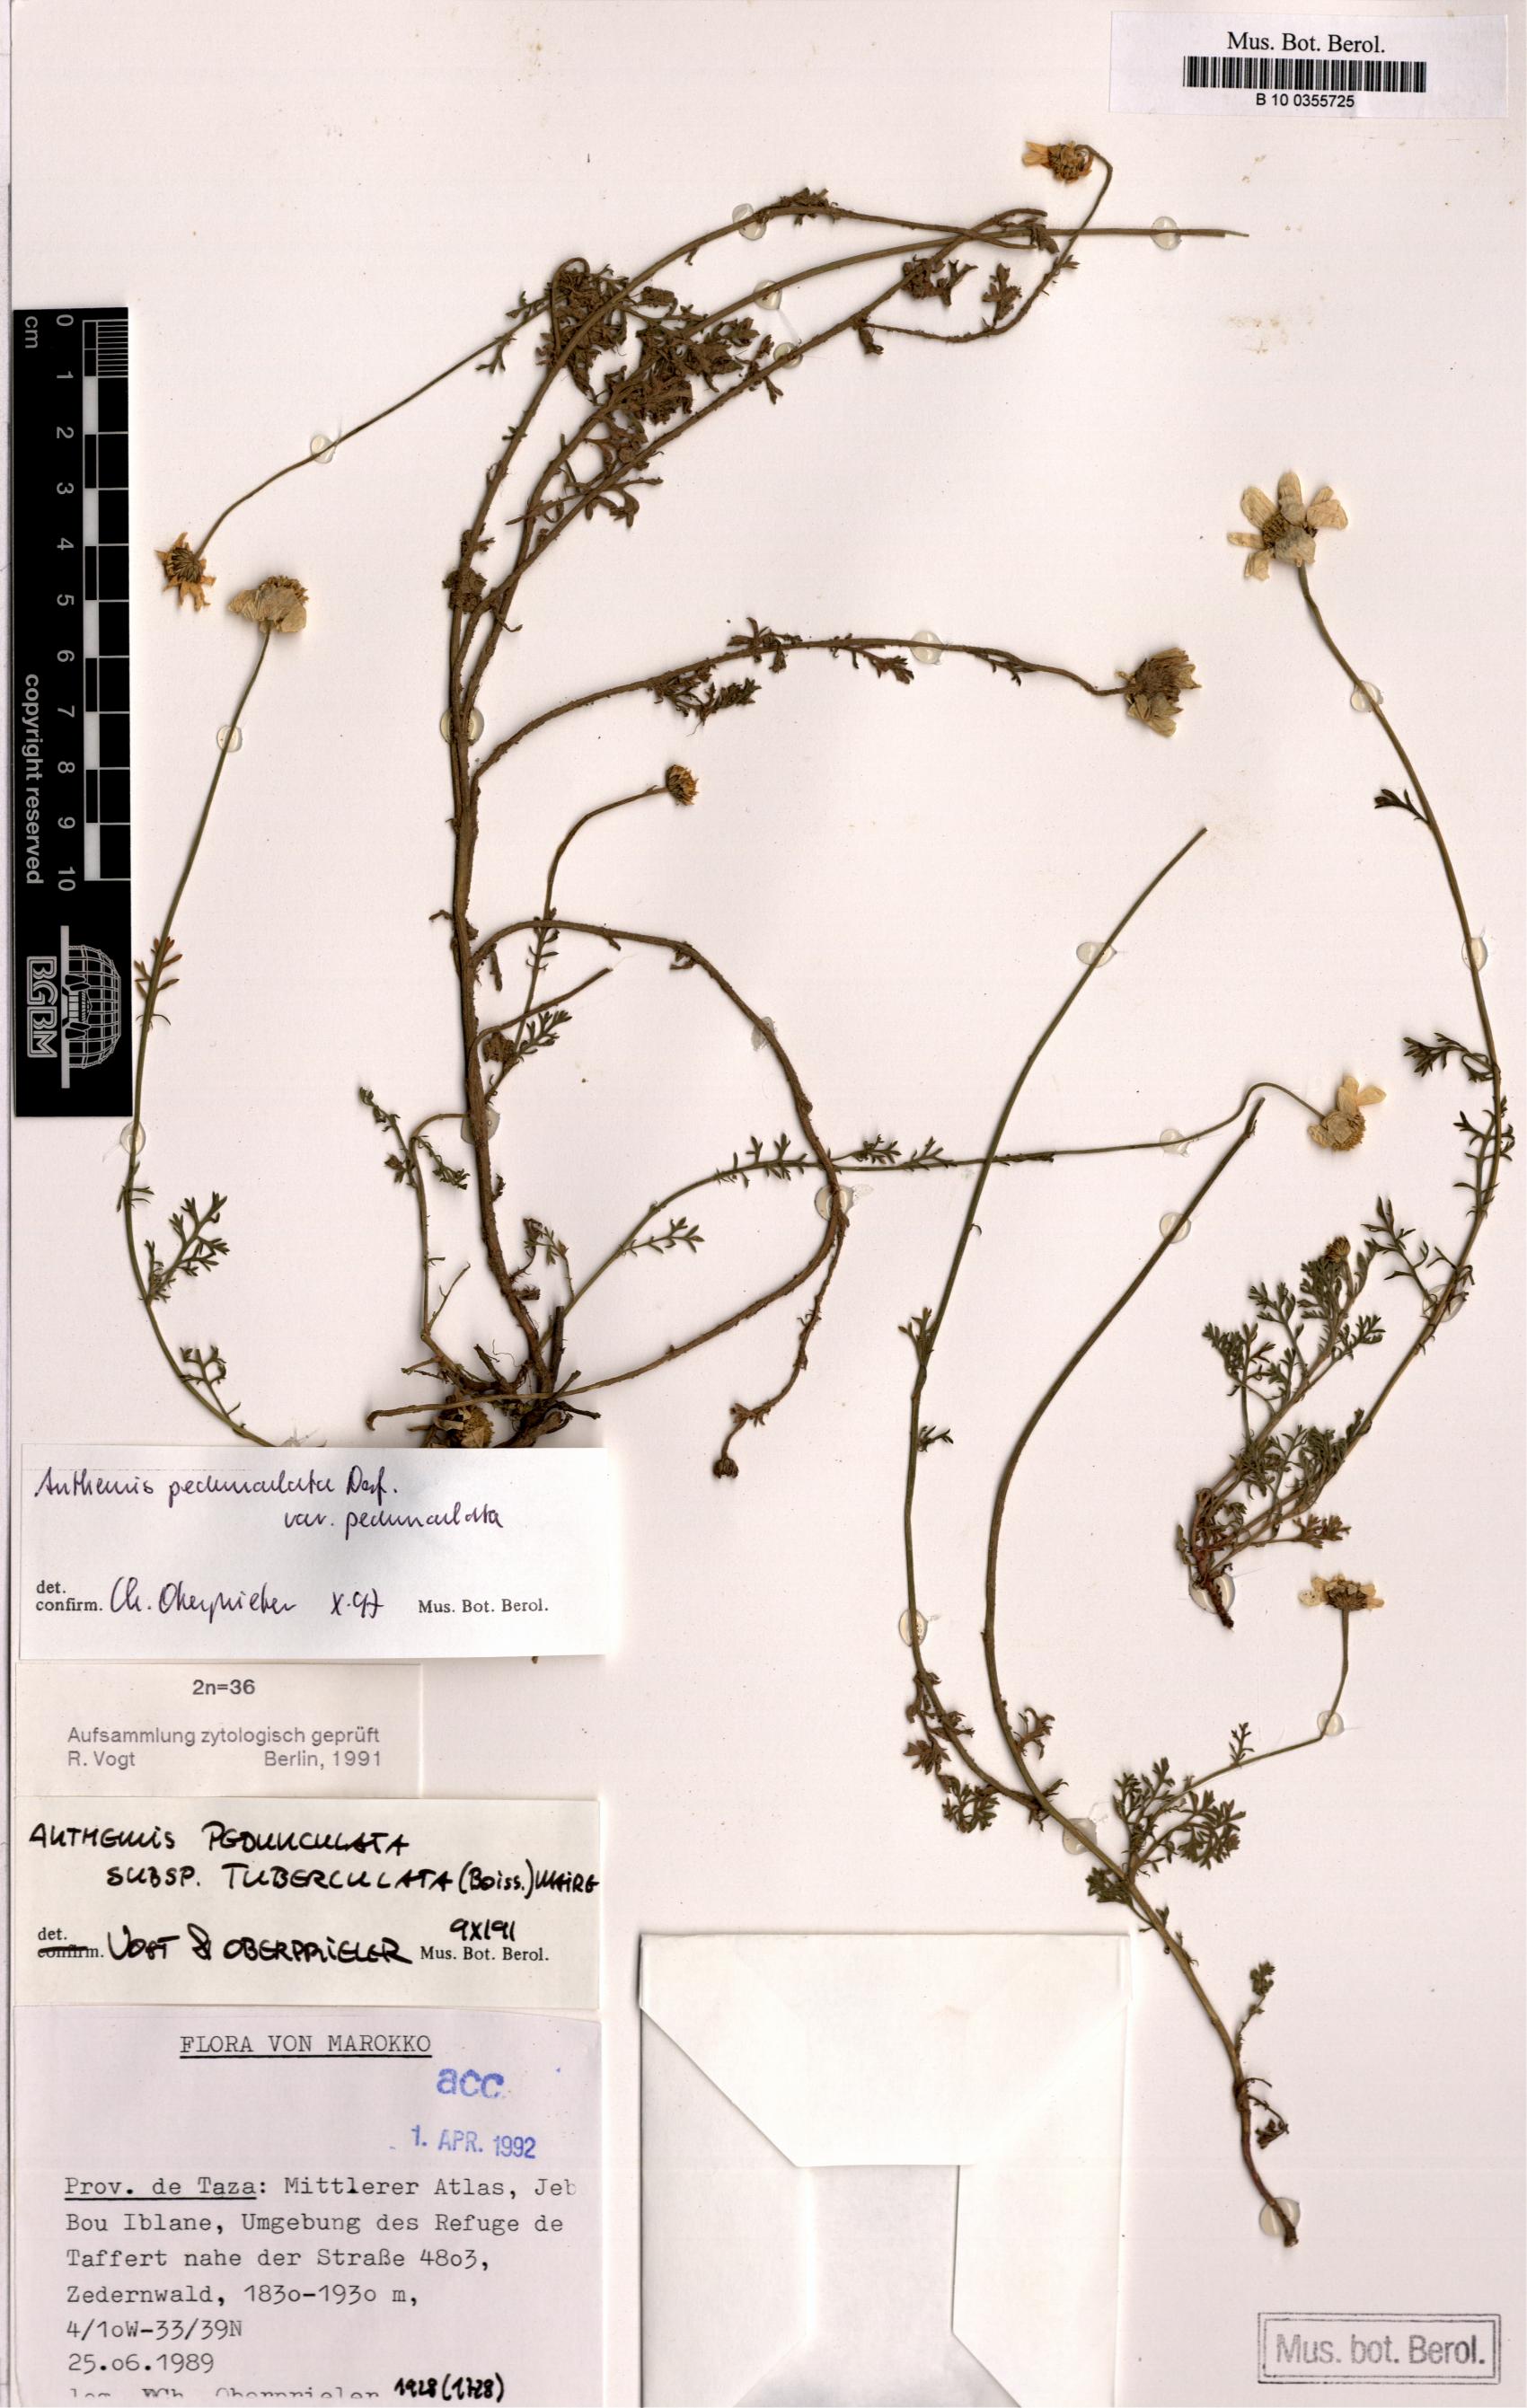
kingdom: Plantae
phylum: Tracheophyta
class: Magnoliopsida
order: Asterales
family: Asteraceae
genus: Anthemis
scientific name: Anthemis pedunculata
